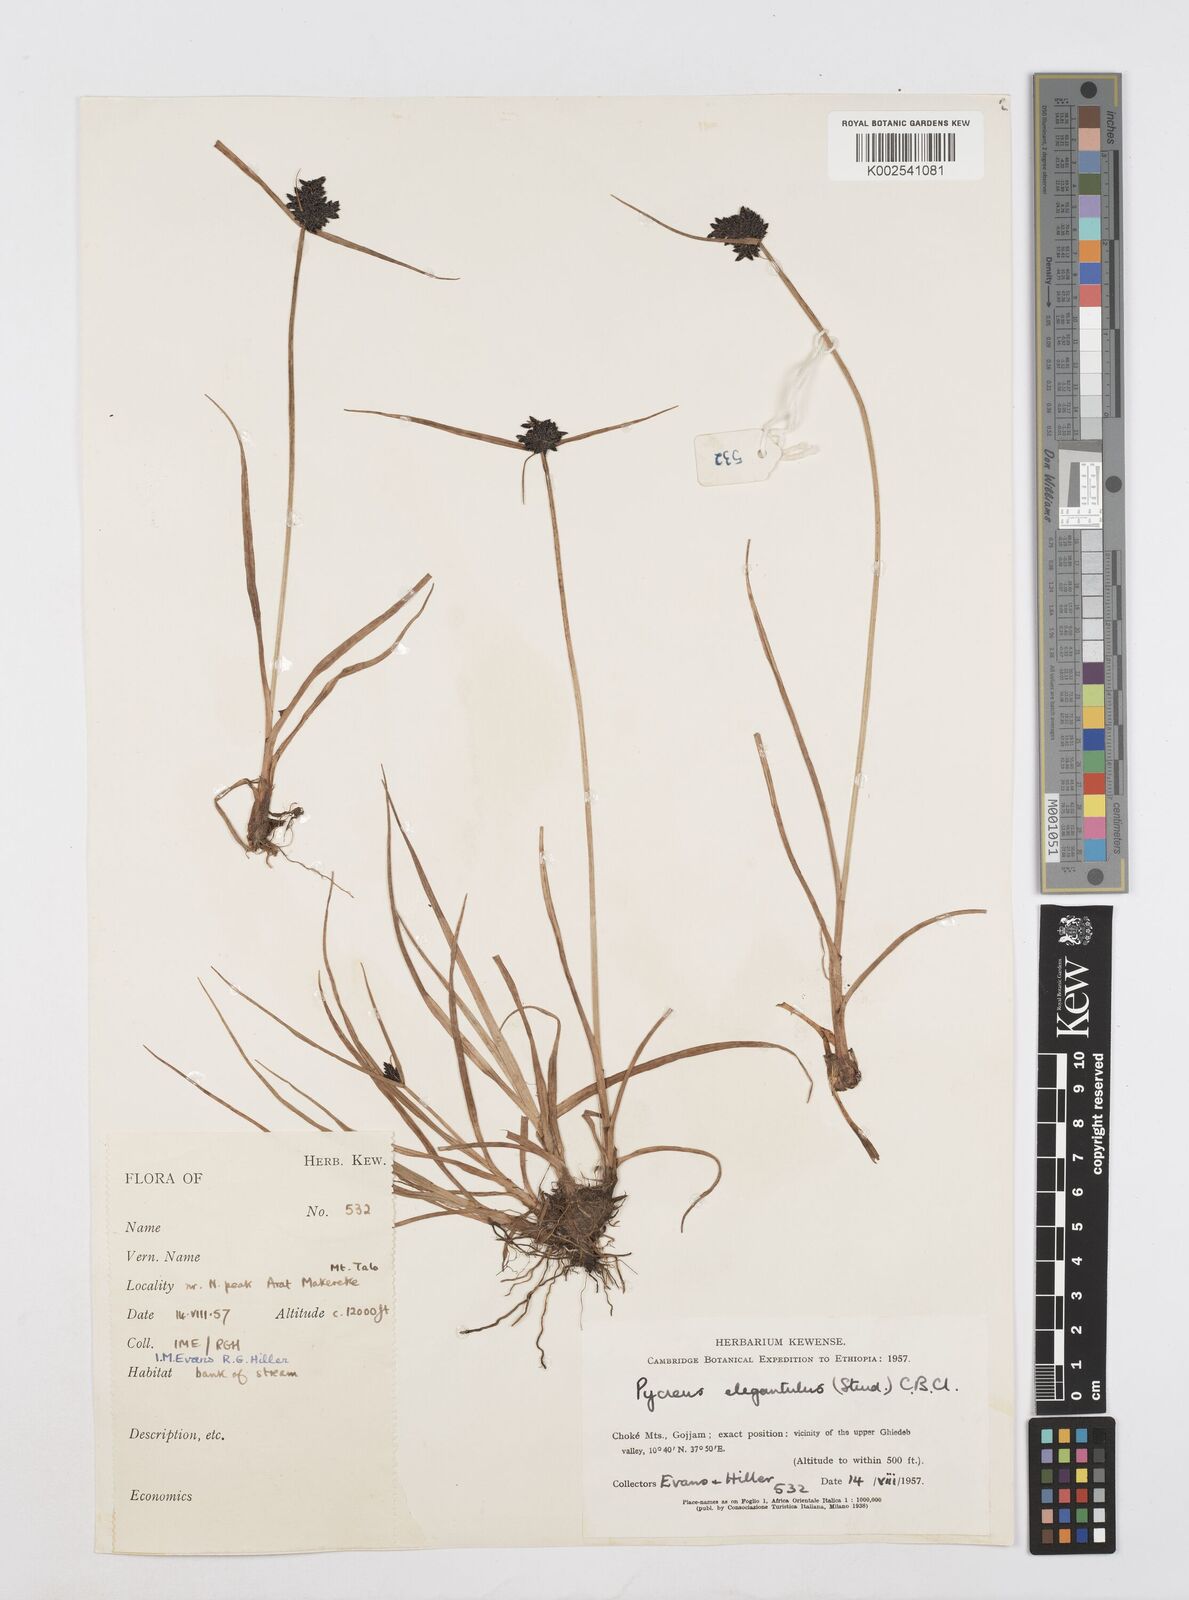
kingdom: Plantae
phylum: Tracheophyta
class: Liliopsida
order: Poales
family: Cyperaceae
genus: Cyperus
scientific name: Cyperus elegantulus
